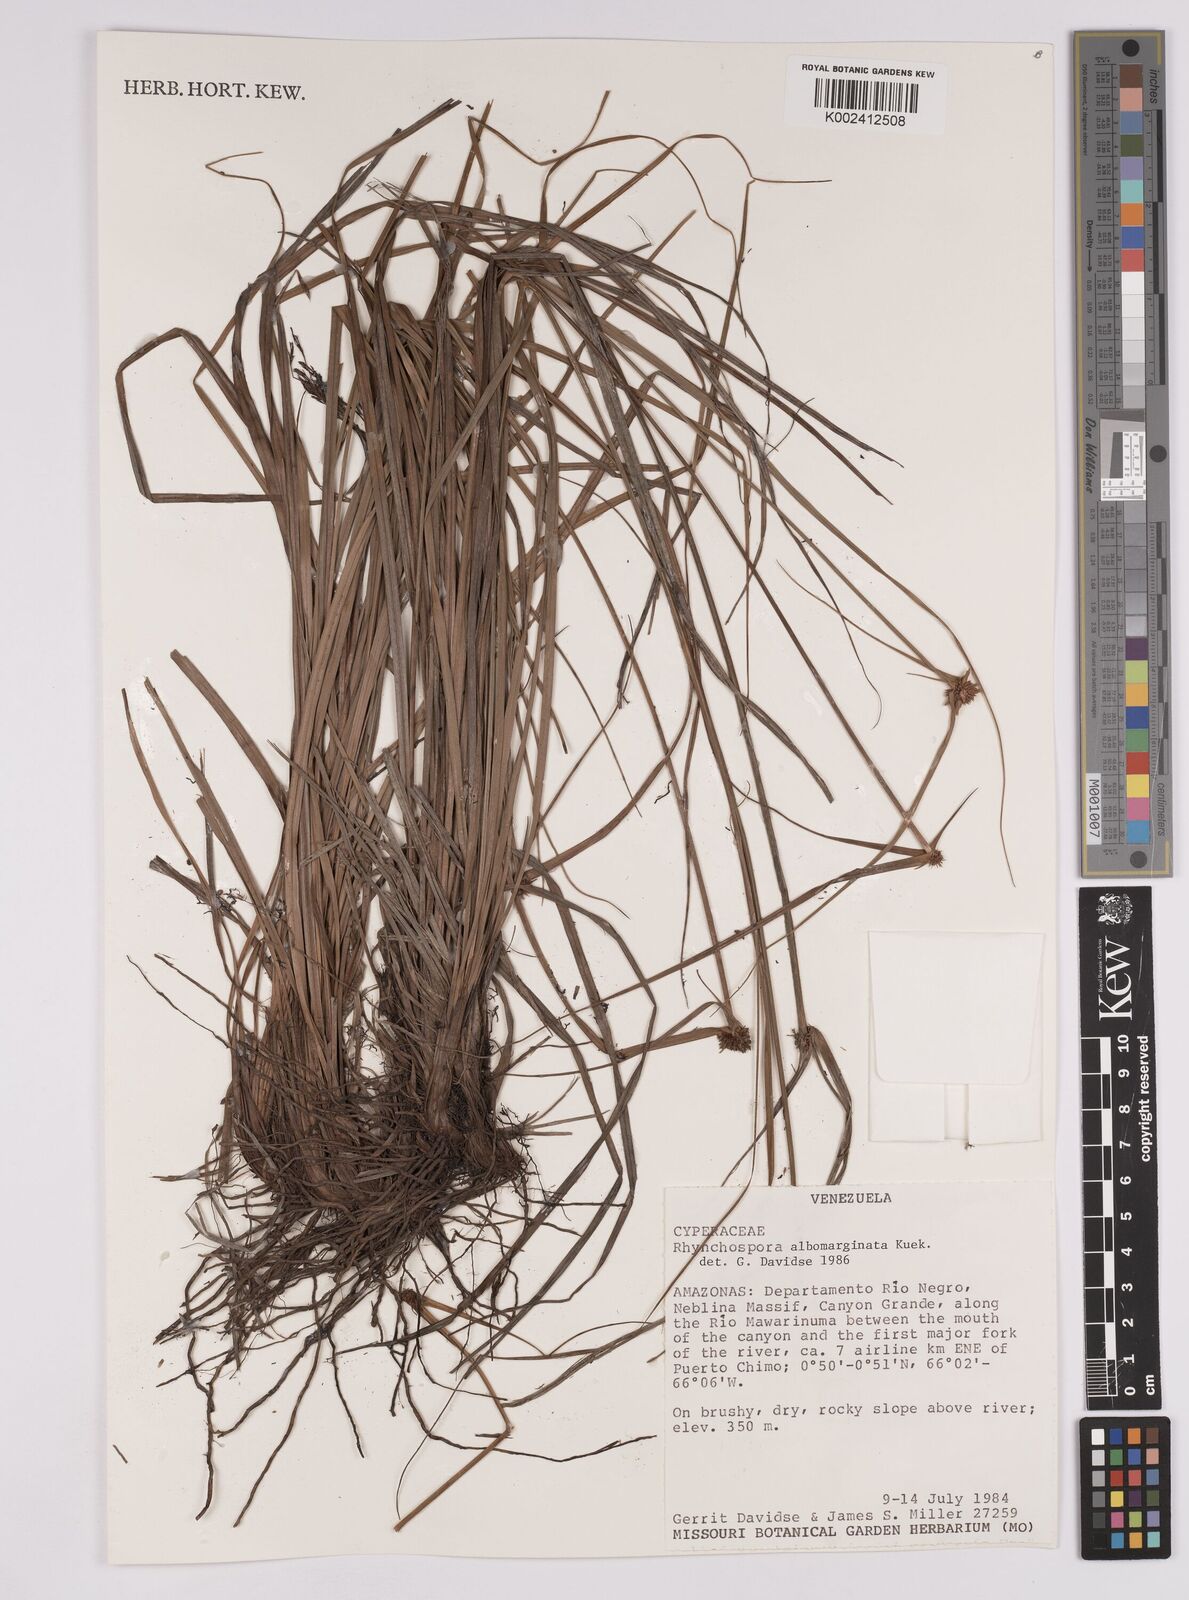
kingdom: Plantae
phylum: Tracheophyta
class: Liliopsida
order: Poales
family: Cyperaceae
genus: Rhynchospora
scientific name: Rhynchospora albomarginata
